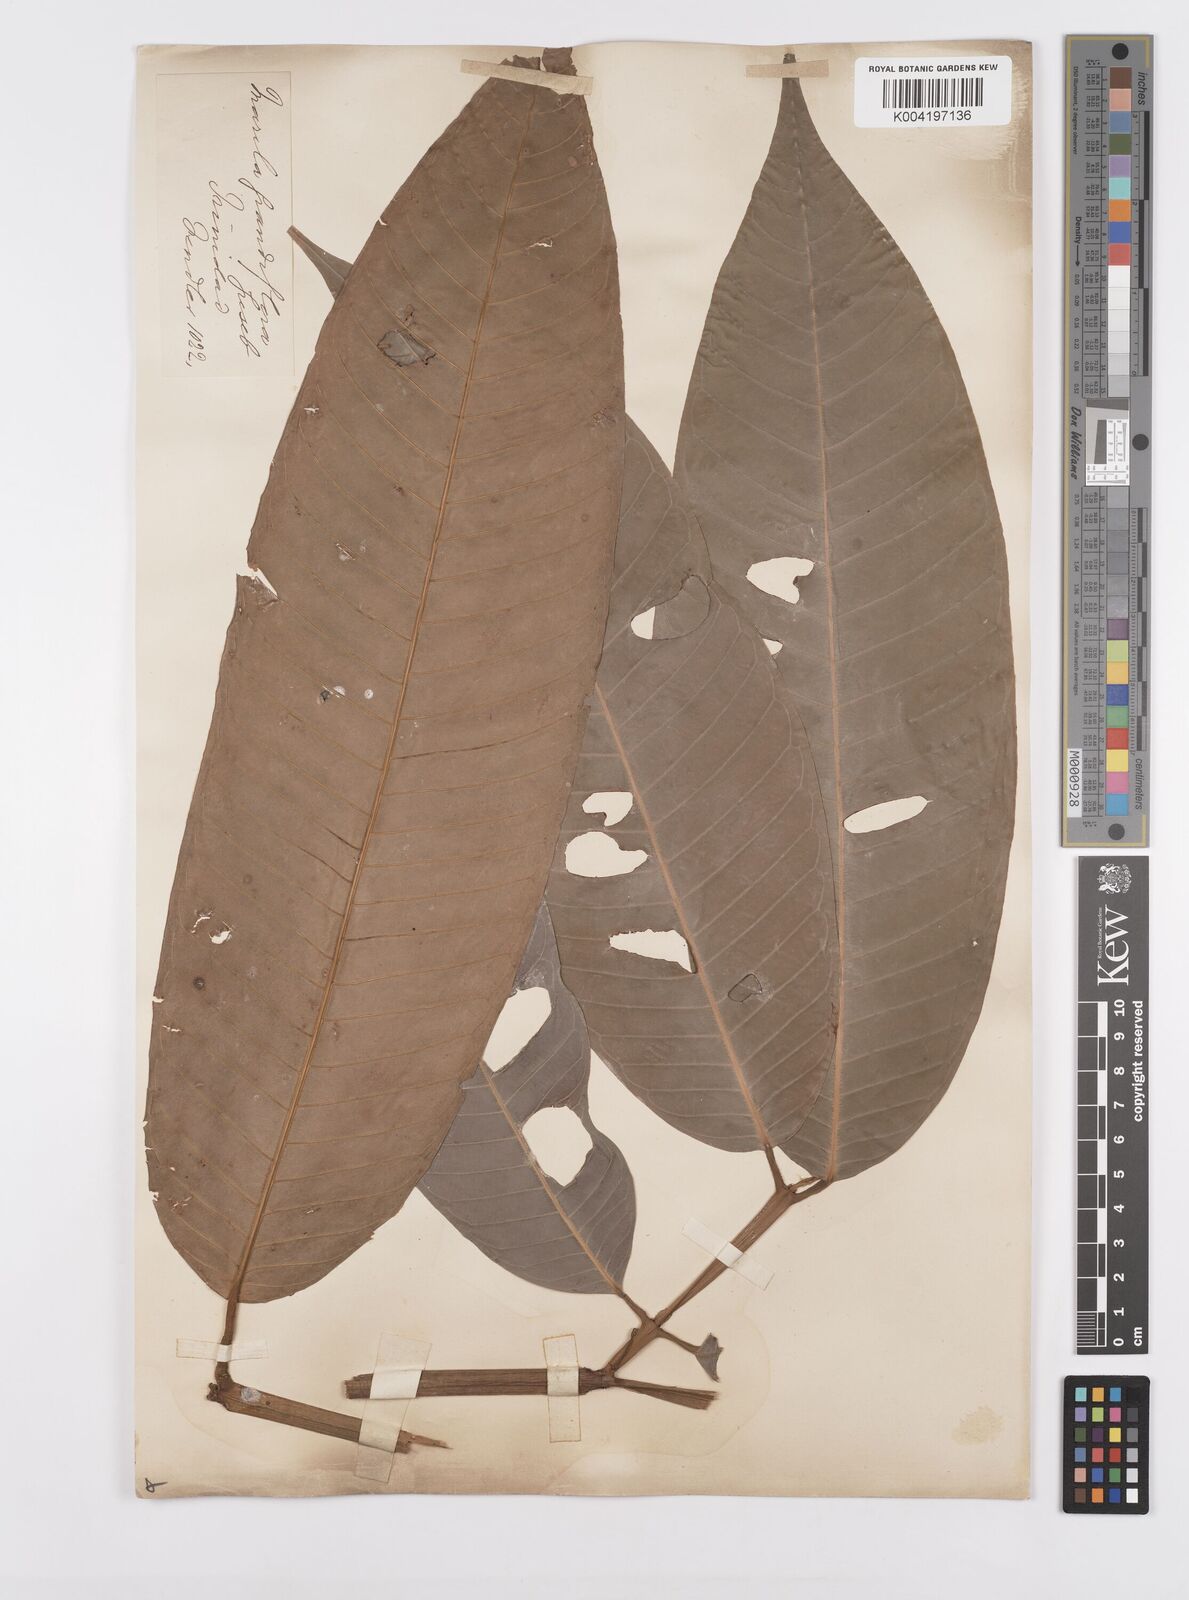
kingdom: Plantae
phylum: Tracheophyta
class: Magnoliopsida
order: Malpighiales
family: Calophyllaceae
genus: Marila
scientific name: Marila grandiflora
